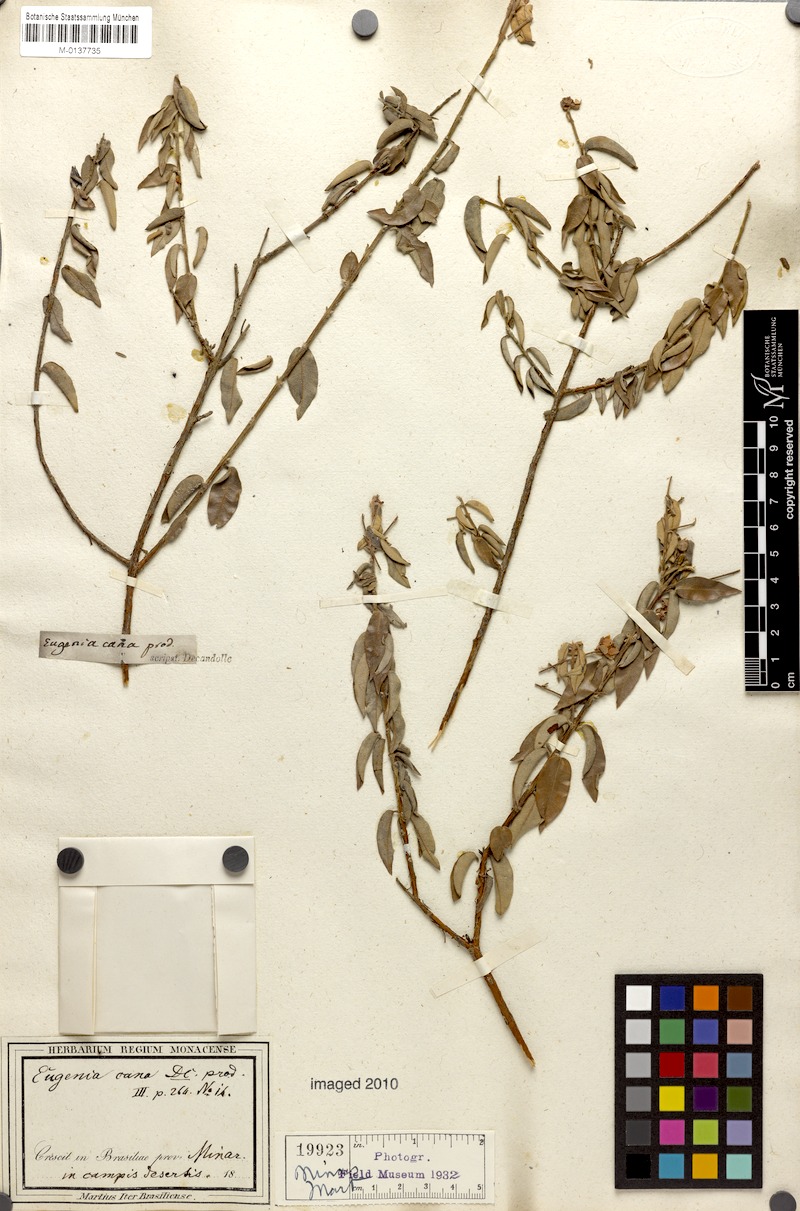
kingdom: Plantae
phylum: Tracheophyta
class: Magnoliopsida
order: Myrtales
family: Myrtaceae
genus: Eugenia
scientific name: Eugenia cana
